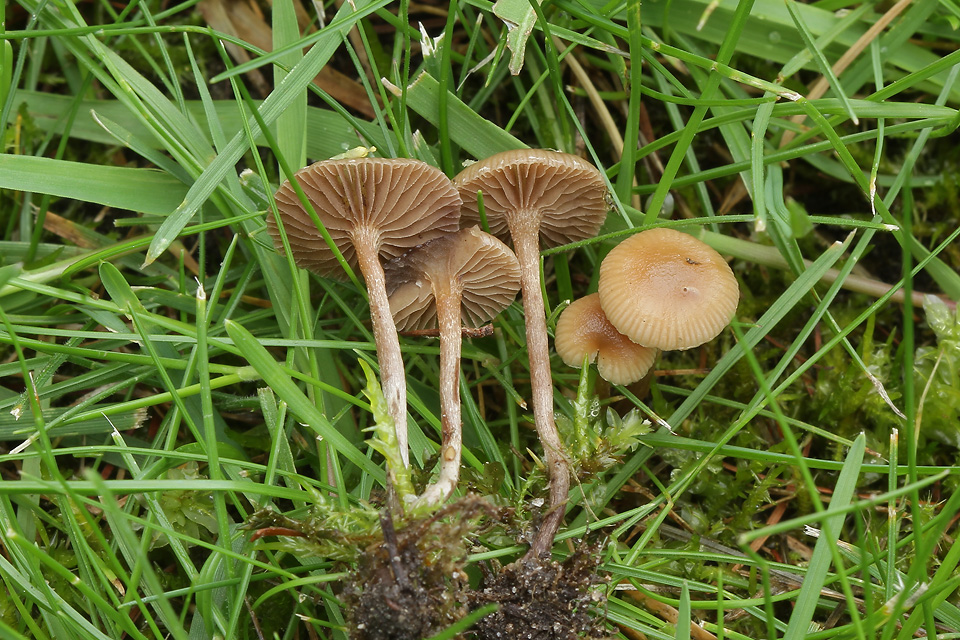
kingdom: Fungi
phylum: Basidiomycota
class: Agaricomycetes
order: Agaricales
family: Strophariaceae
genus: Deconica
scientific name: Deconica inquilina
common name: græs-stråhat
